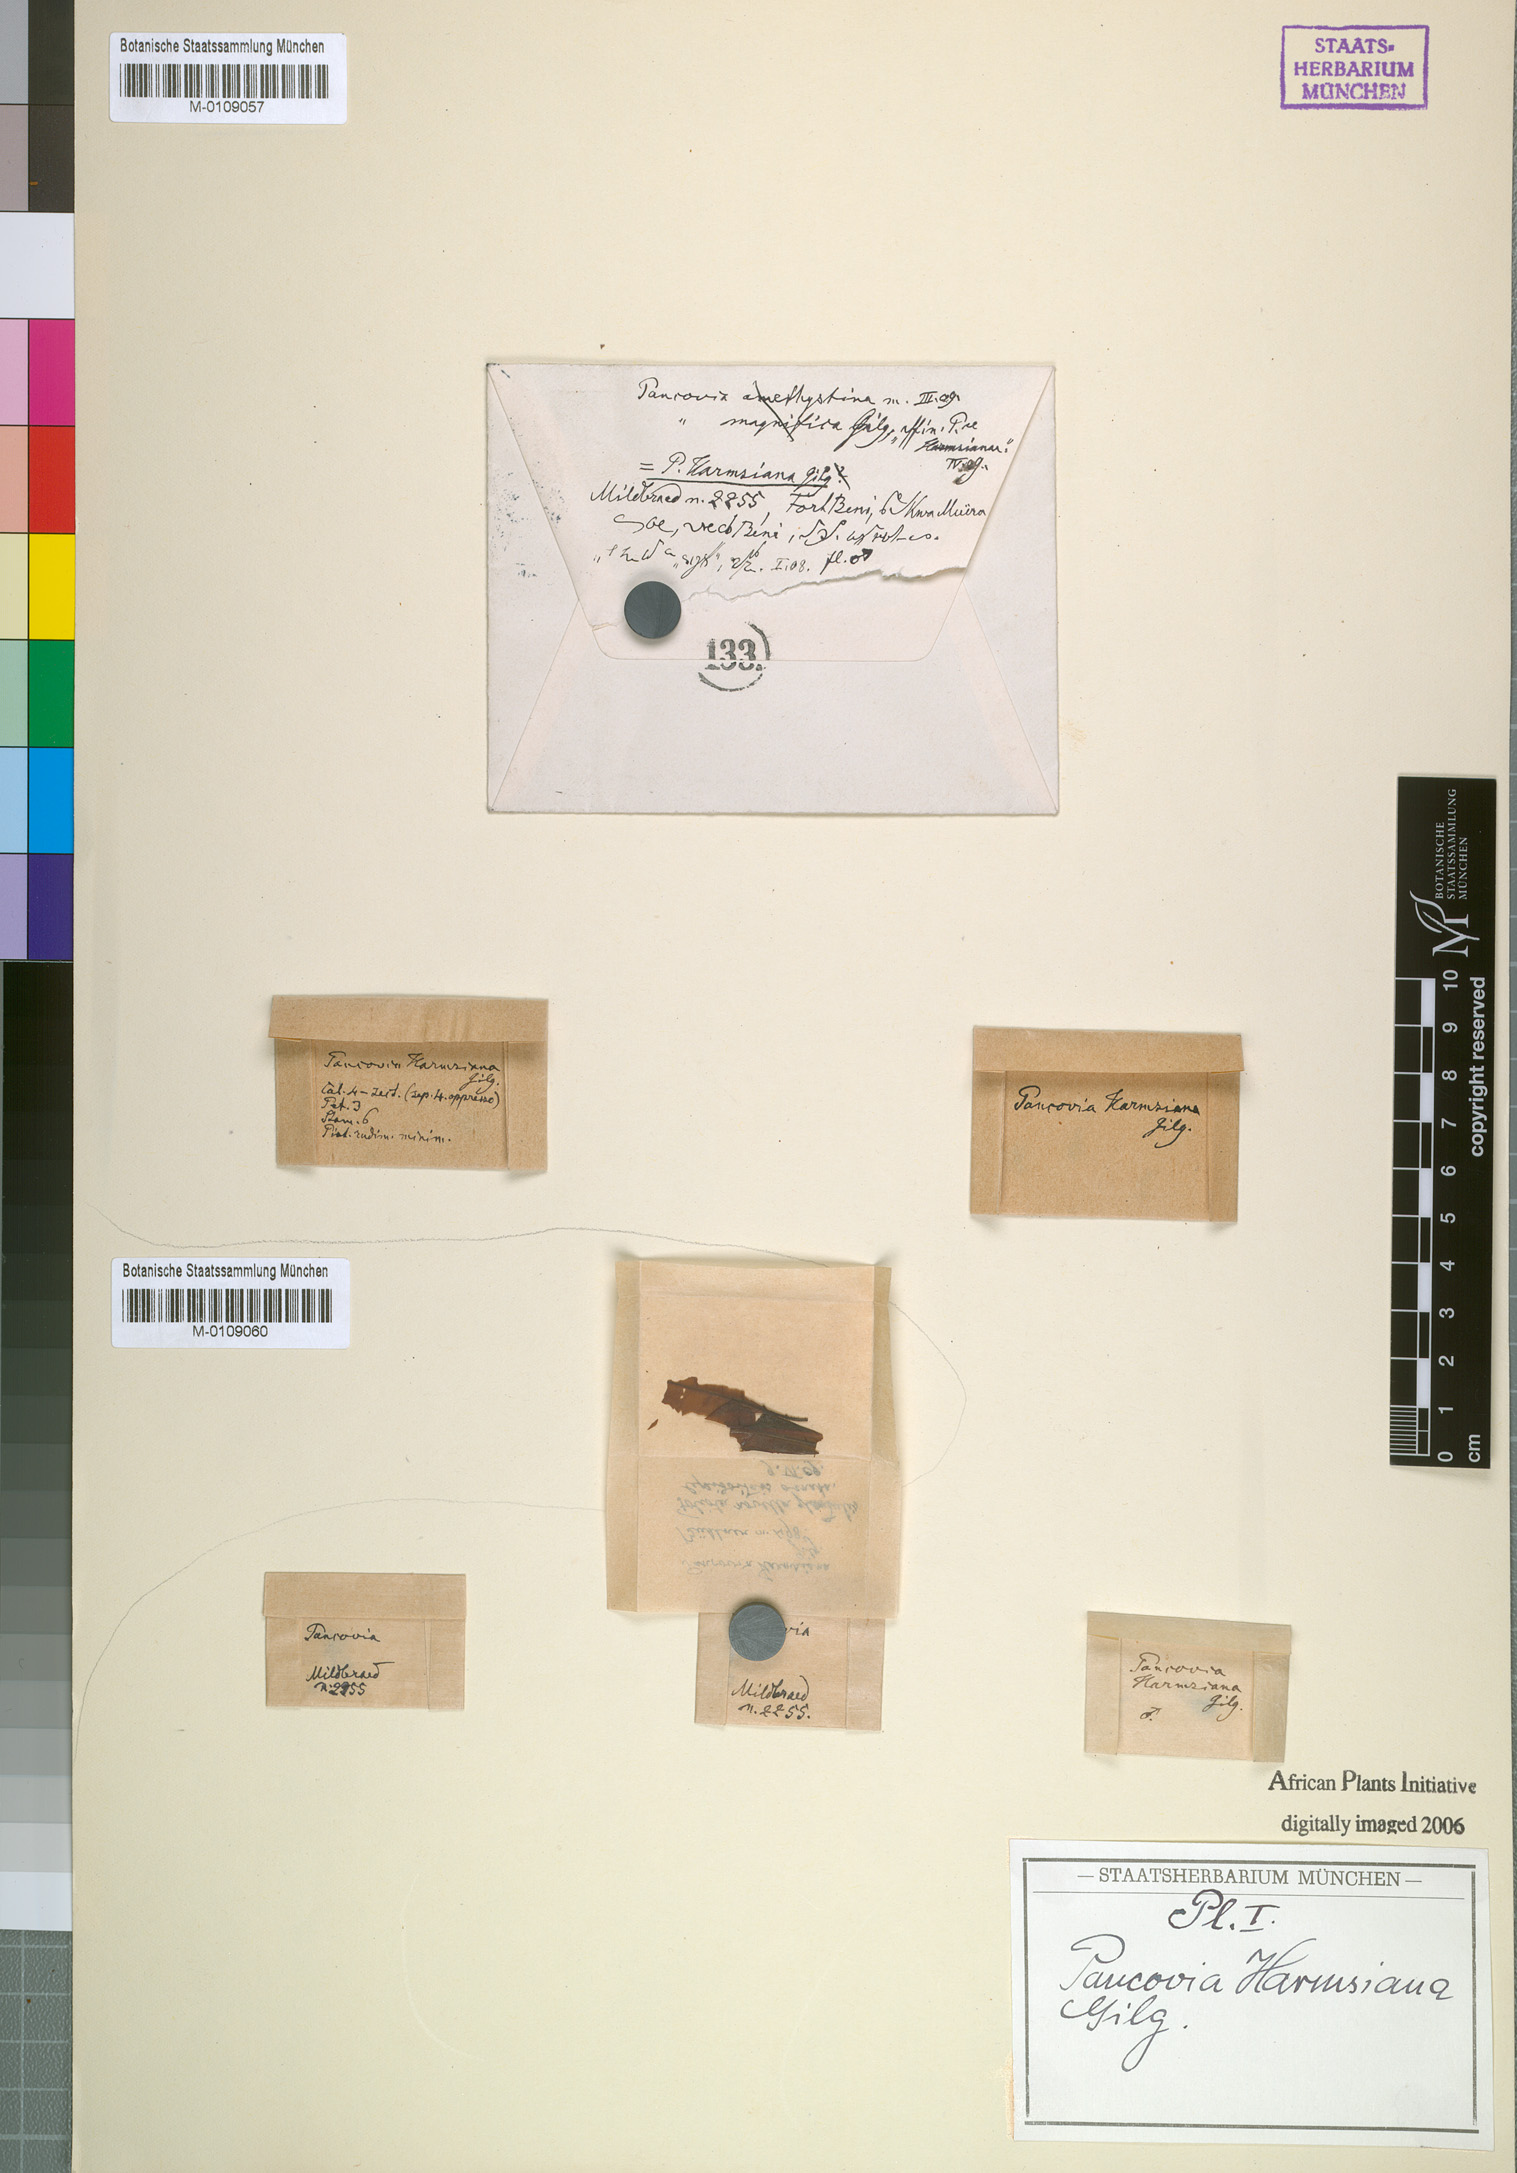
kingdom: Plantae
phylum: Tracheophyta
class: Magnoliopsida
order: Sapindales
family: Sapindaceae
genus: Pancovia
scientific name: Pancovia harmsiana
